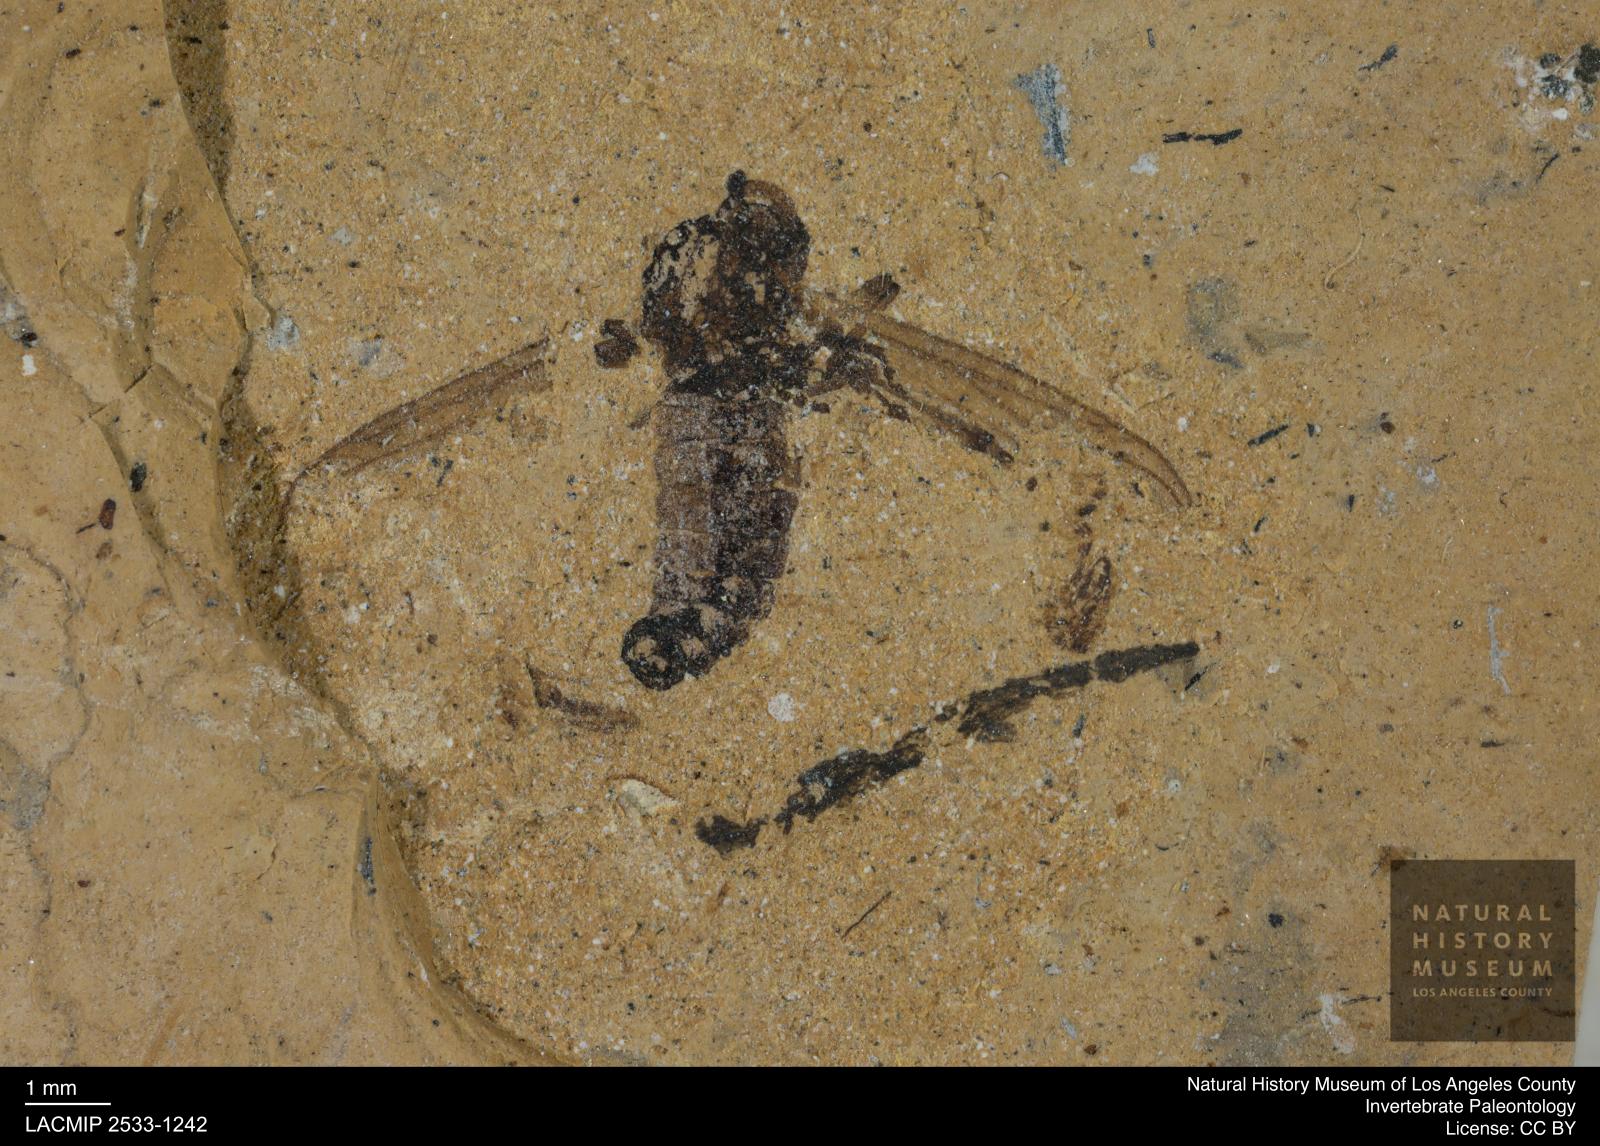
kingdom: Animalia
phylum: Arthropoda
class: Insecta
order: Diptera
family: Bibionidae
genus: Plecia
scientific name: Plecia
